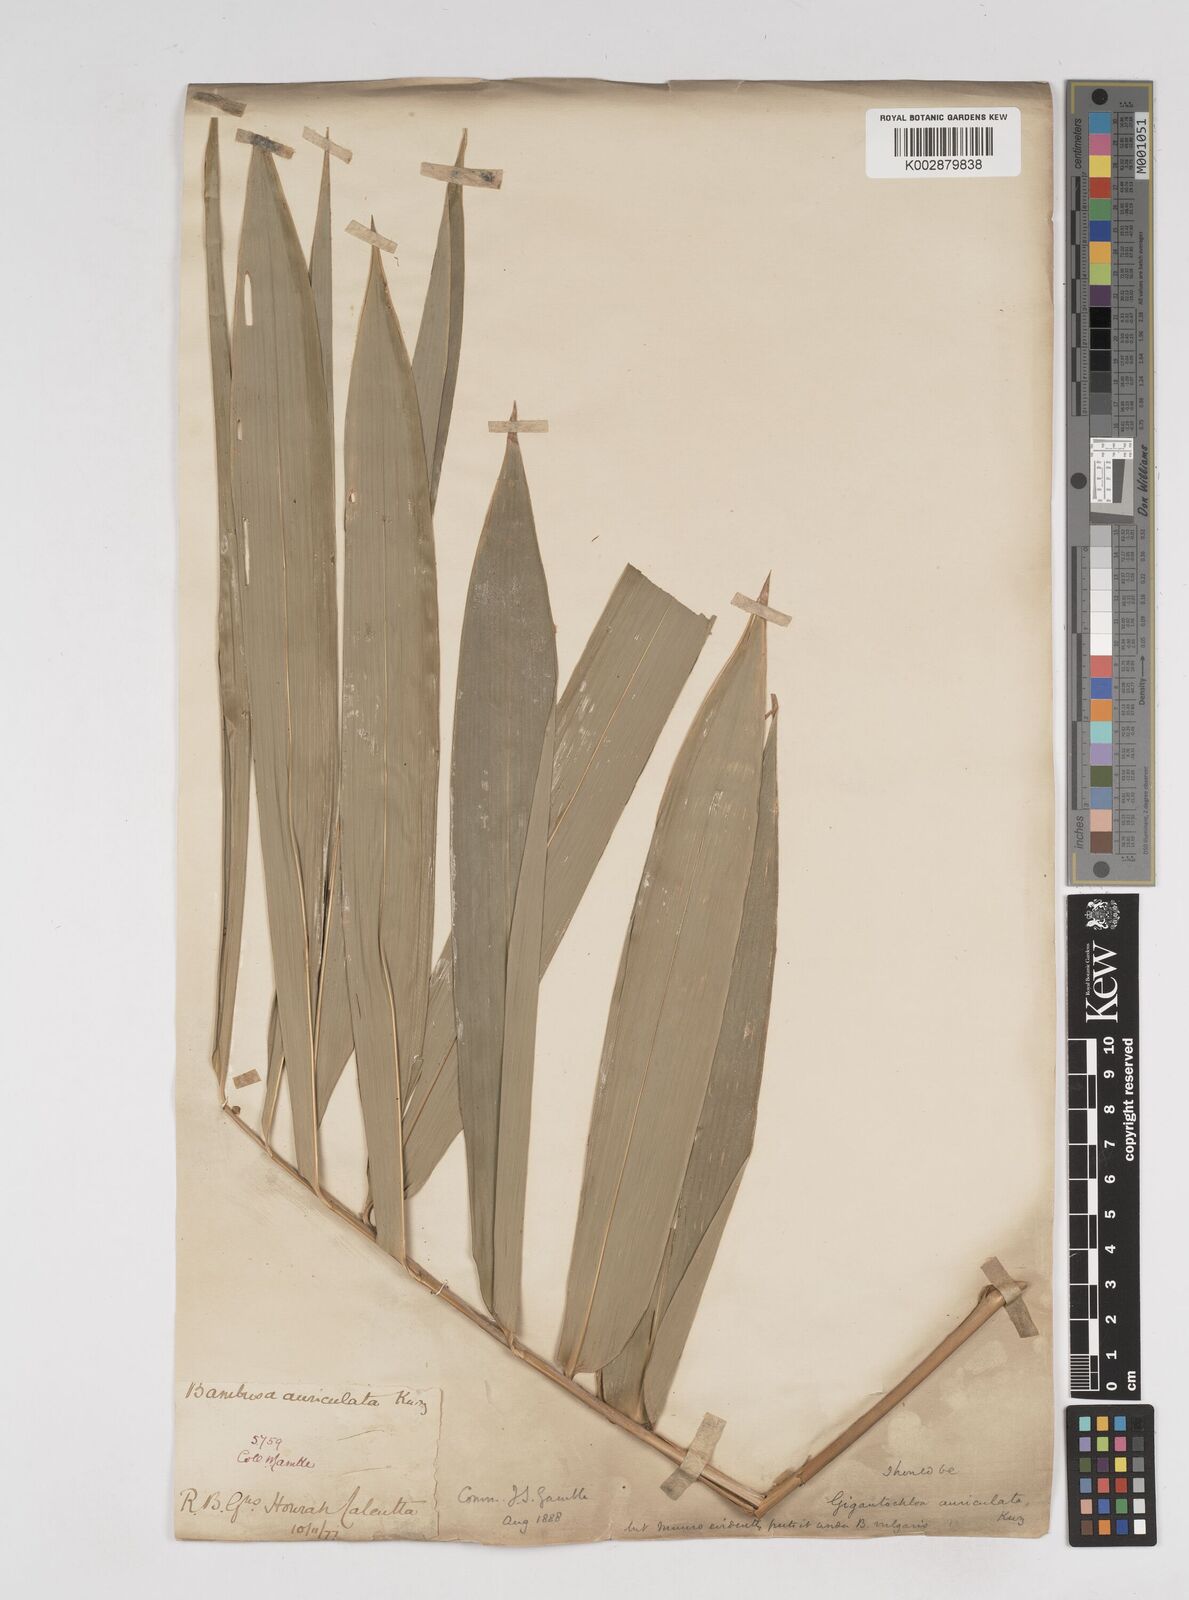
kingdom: Plantae
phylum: Tracheophyta
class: Liliopsida
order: Poales
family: Poaceae
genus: Gigantochloa
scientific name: Gigantochloa nigrociliata
